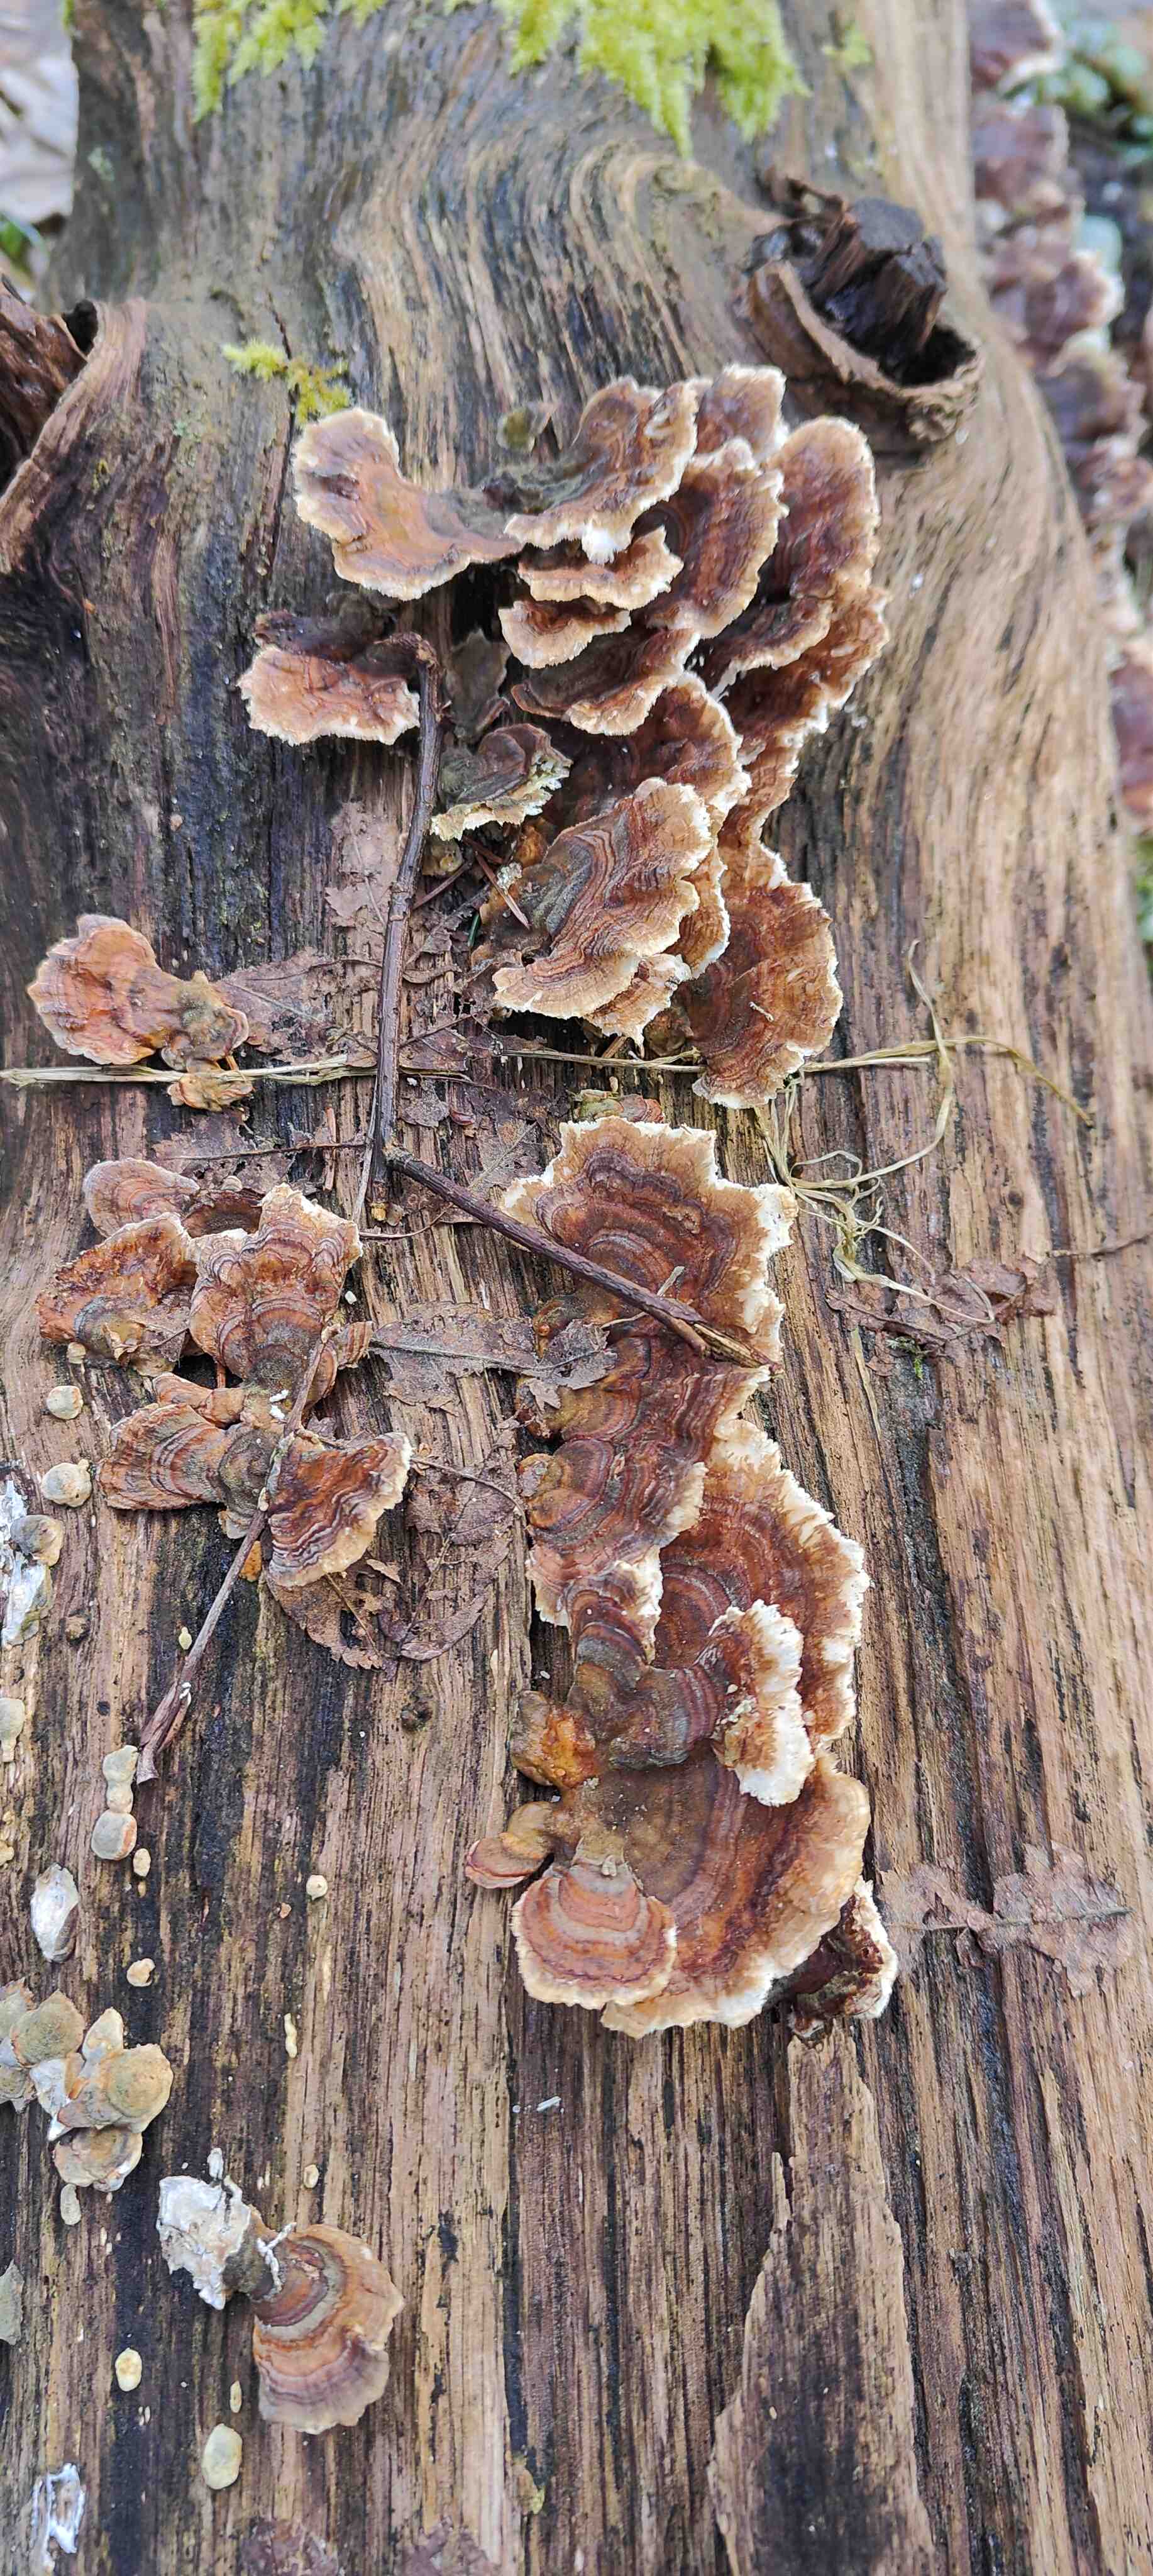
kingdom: Fungi
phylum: Basidiomycota
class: Agaricomycetes
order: Polyporales
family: Polyporaceae
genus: Trametes
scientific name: Trametes
